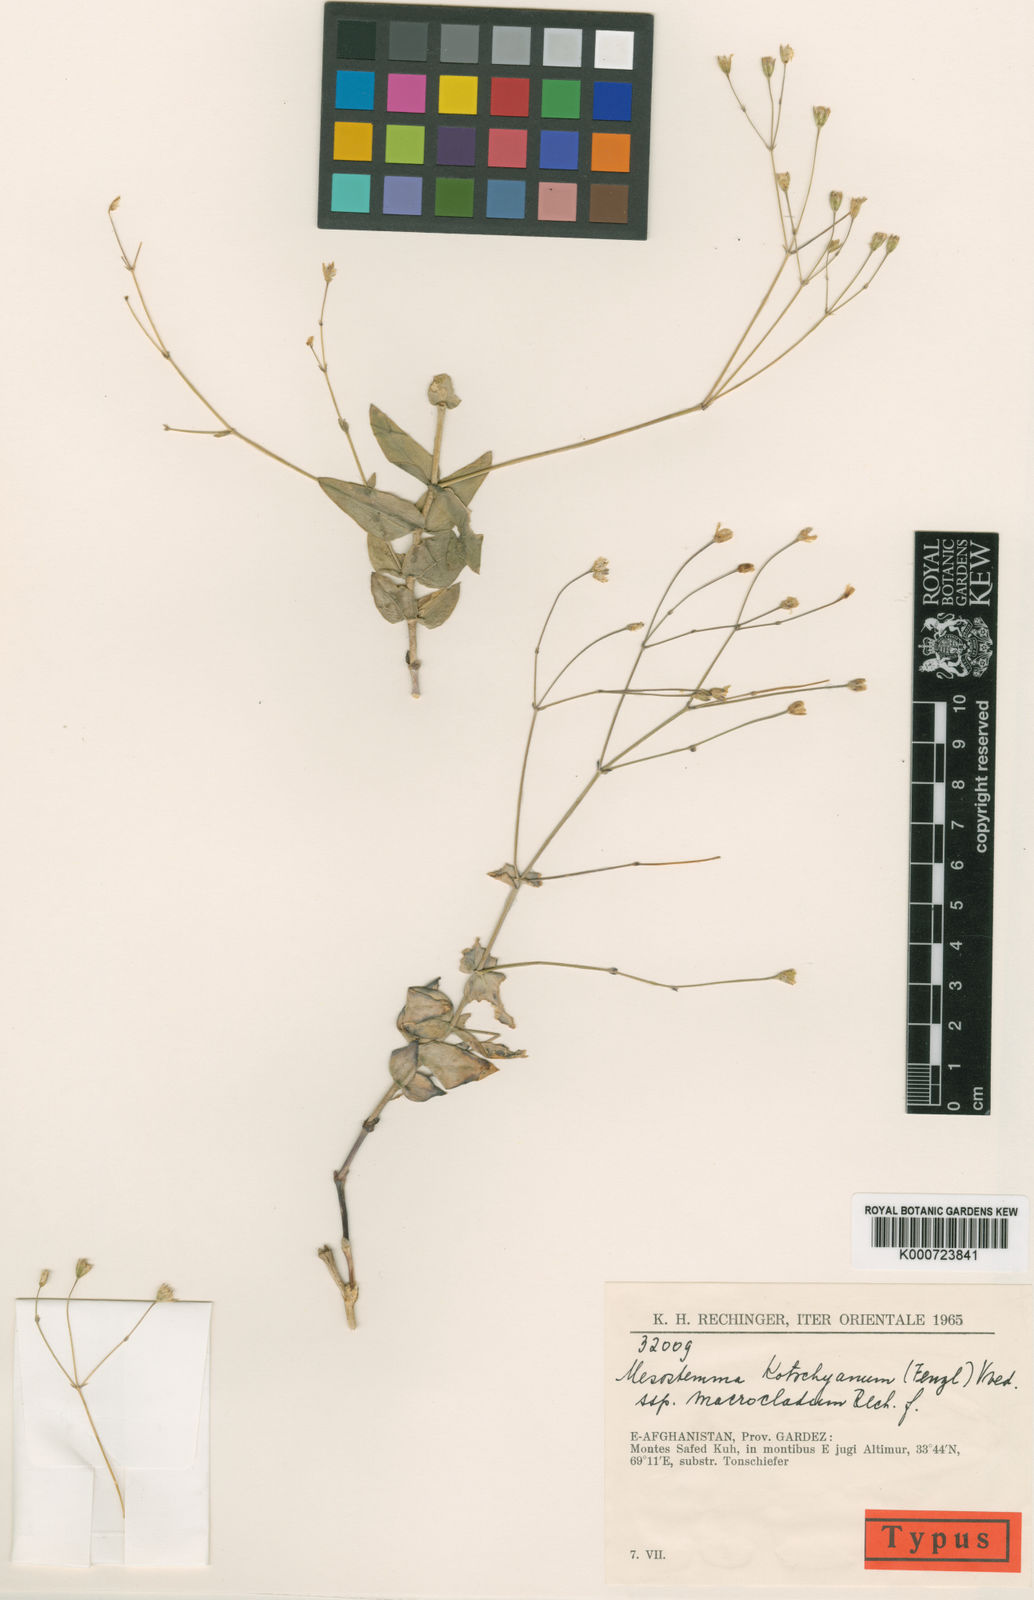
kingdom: Plantae
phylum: Tracheophyta
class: Magnoliopsida
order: Caryophyllales
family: Caryophyllaceae
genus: Mesostemma
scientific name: Mesostemma kotschyanum
